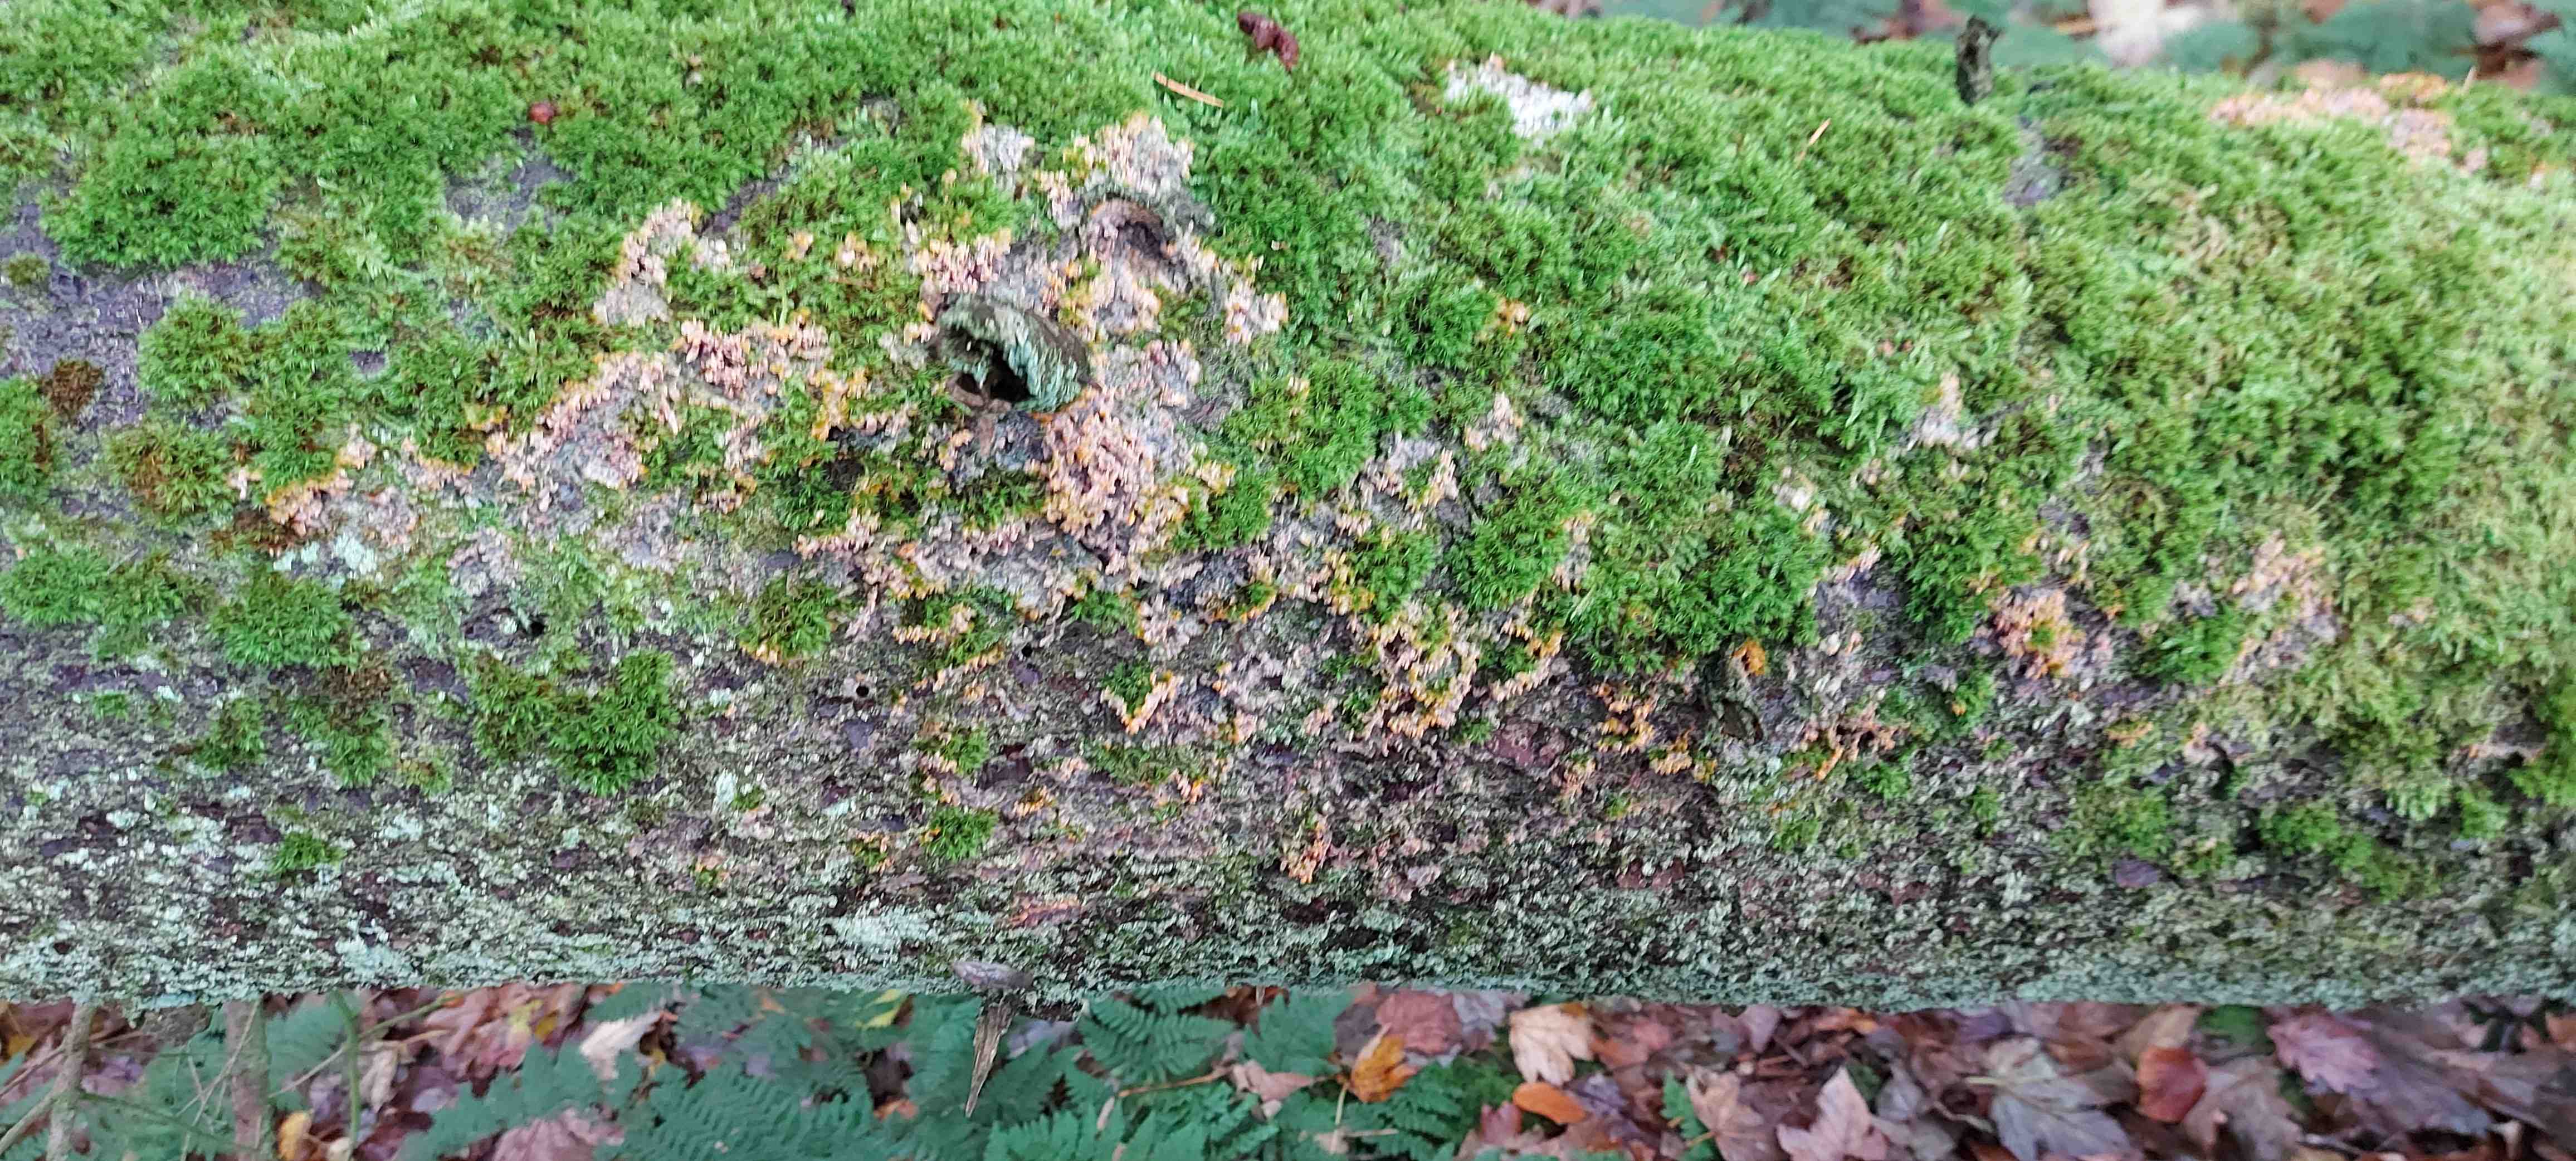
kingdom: Fungi
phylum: Basidiomycota
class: Agaricomycetes
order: Polyporales
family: Meruliaceae
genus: Phlebia
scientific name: Phlebia radiata
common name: stråle-åresvamp
